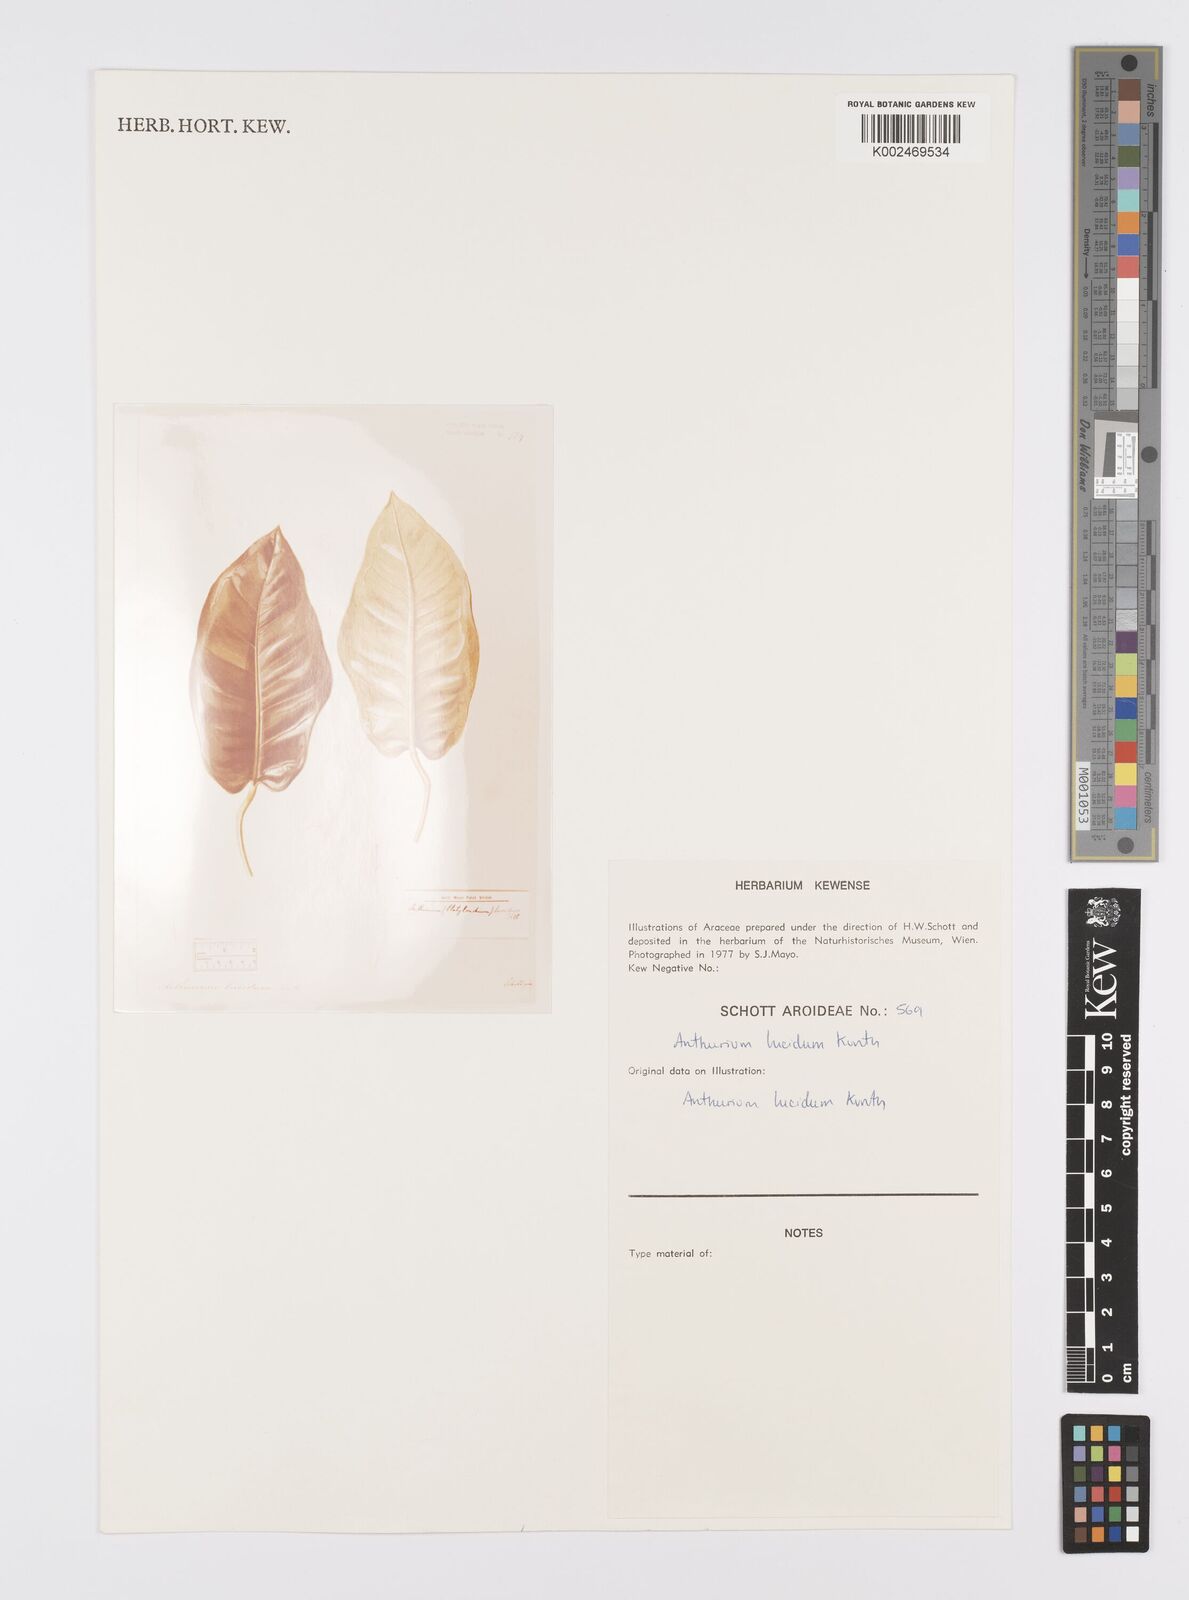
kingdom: Plantae
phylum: Tracheophyta
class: Liliopsida
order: Alismatales
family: Araceae
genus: Anthurium
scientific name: Anthurium lucidum
